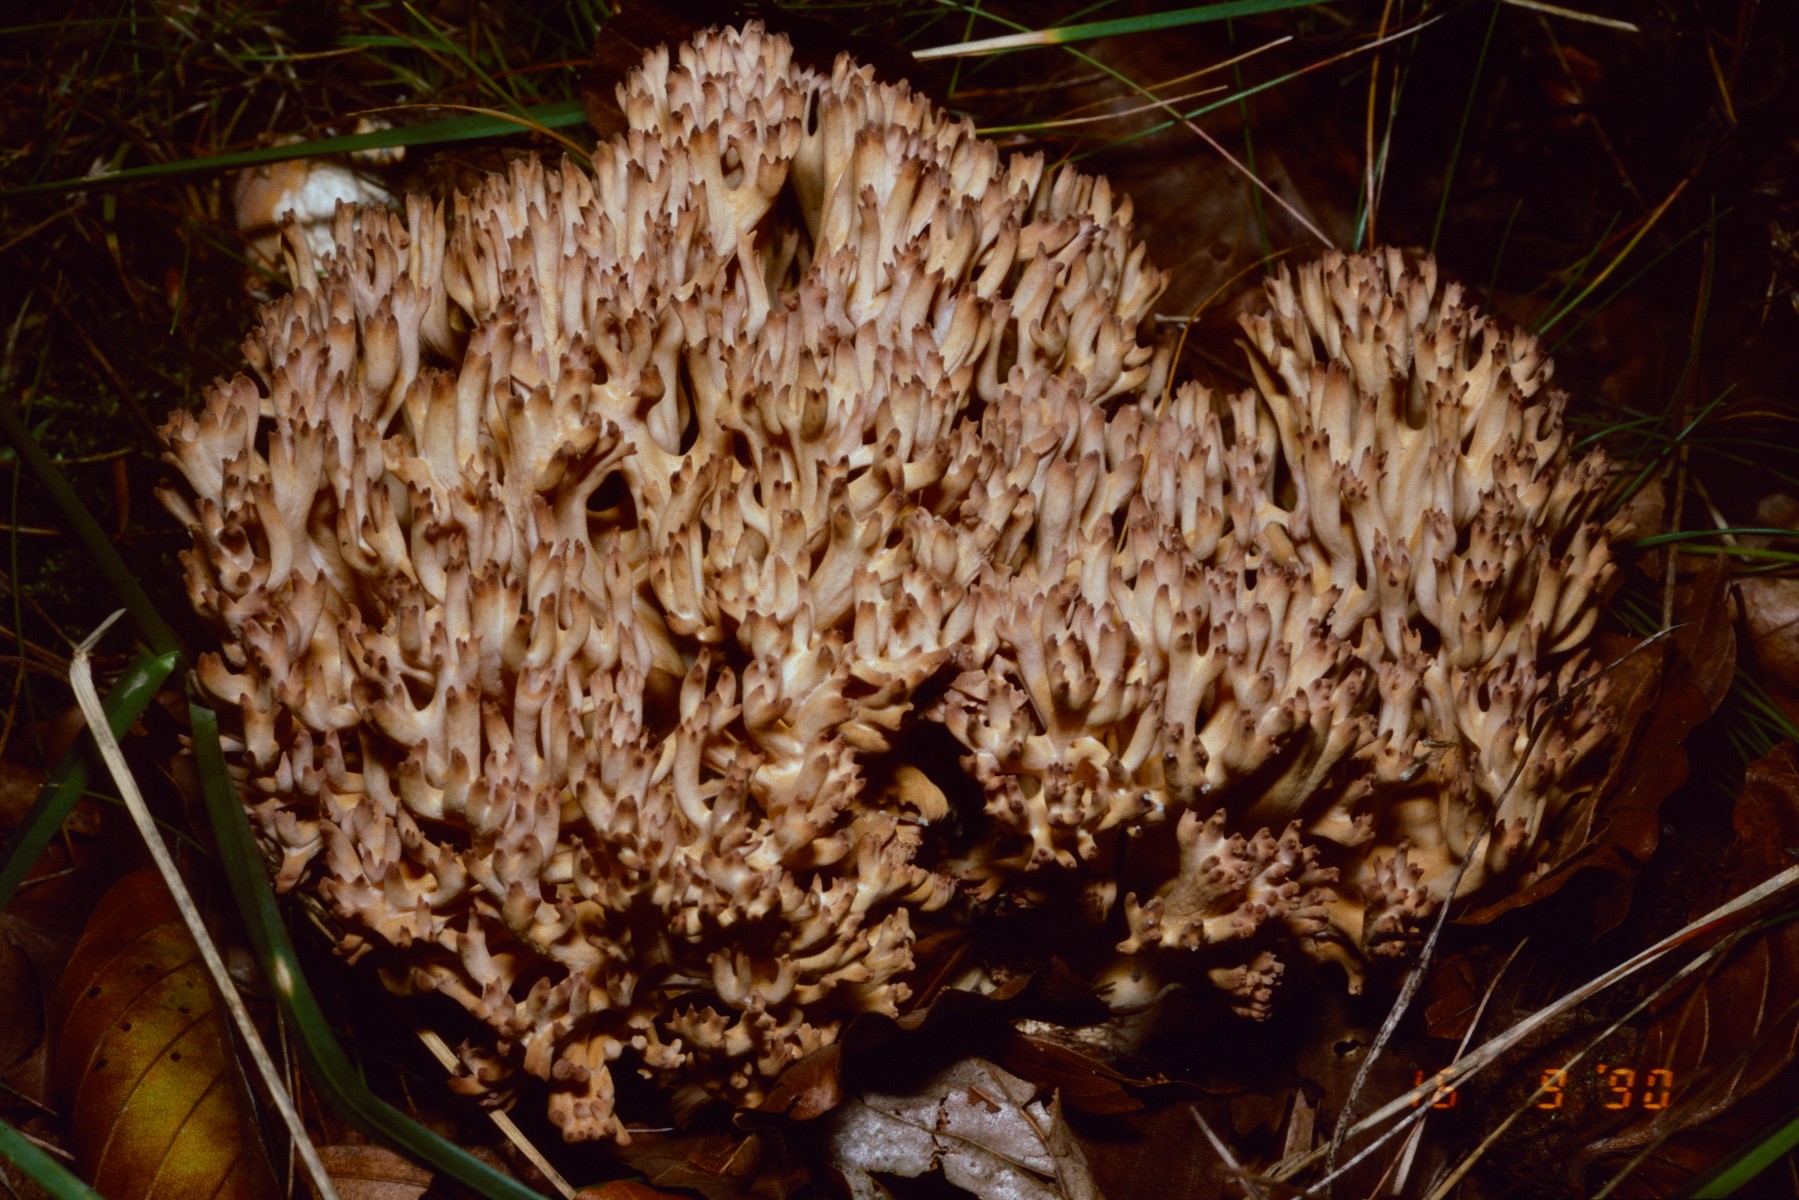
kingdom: Fungi
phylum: Basidiomycota
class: Agaricomycetes
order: Gomphales
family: Gomphaceae
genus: Ramaria
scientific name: Ramaria botrytis
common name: drue-koralsvamp
